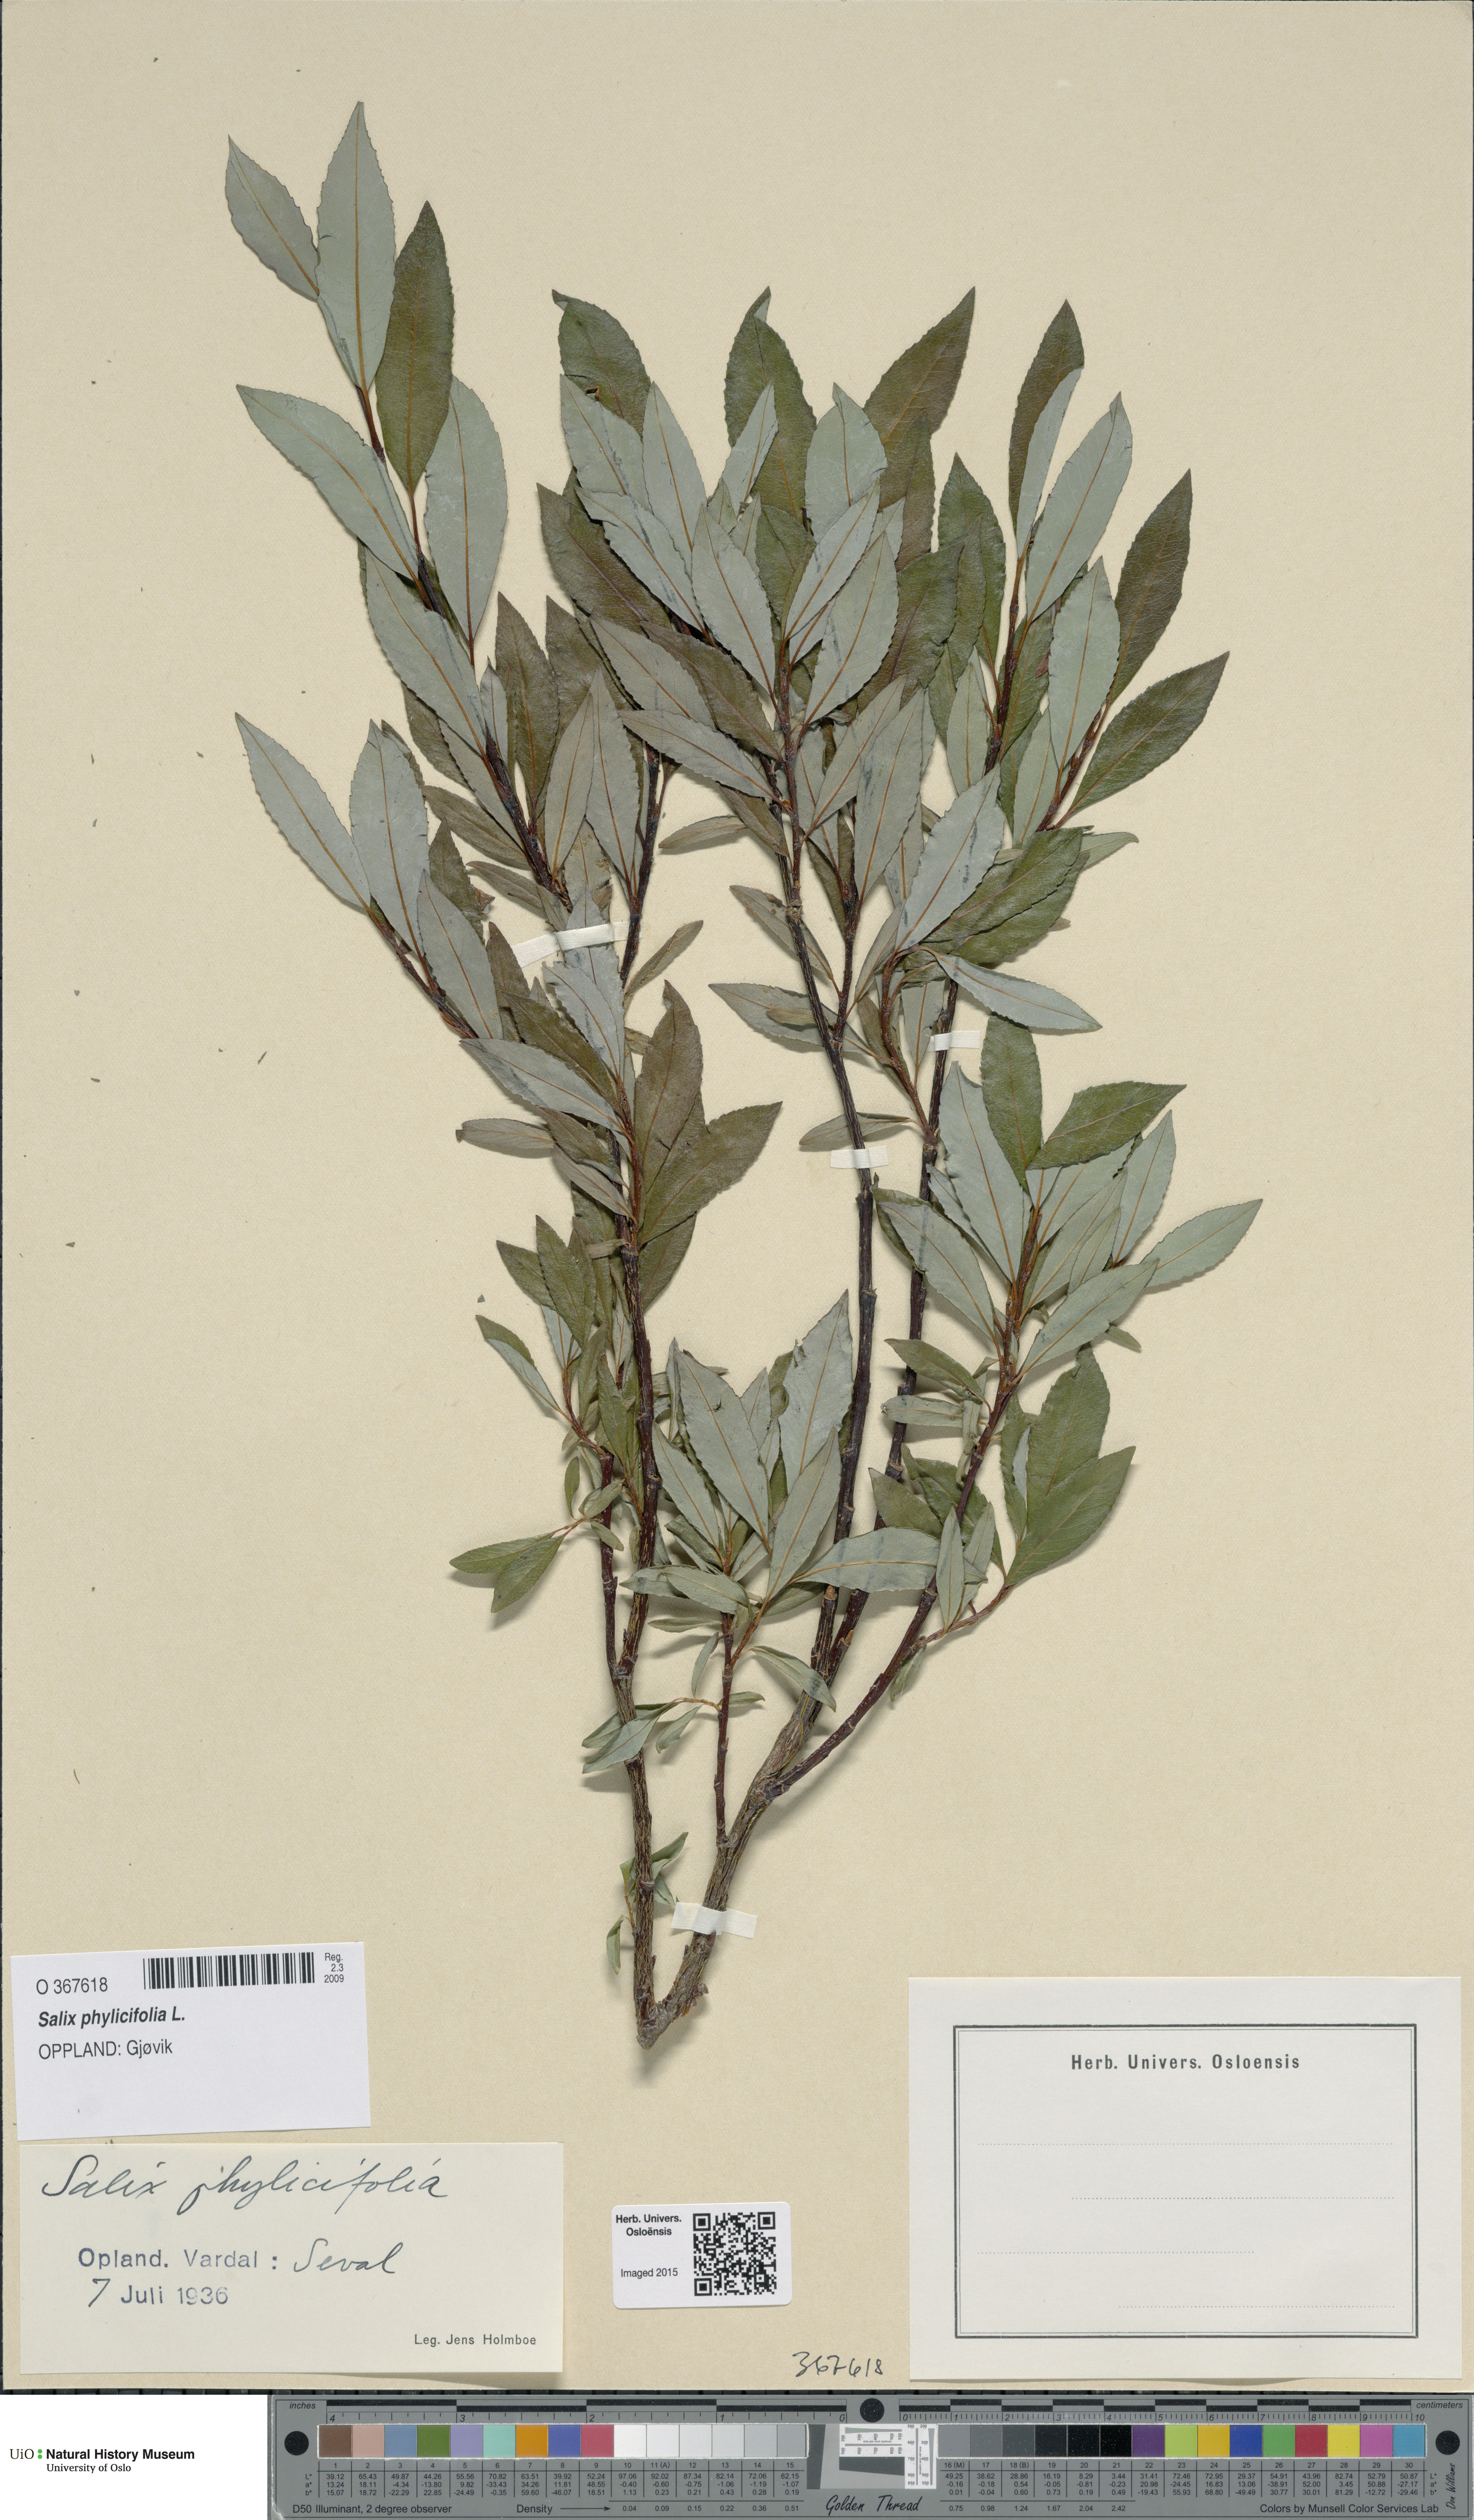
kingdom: Plantae
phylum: Tracheophyta
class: Magnoliopsida
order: Malpighiales
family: Salicaceae
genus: Salix
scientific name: Salix phylicifolia
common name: Tea-leaved willow
